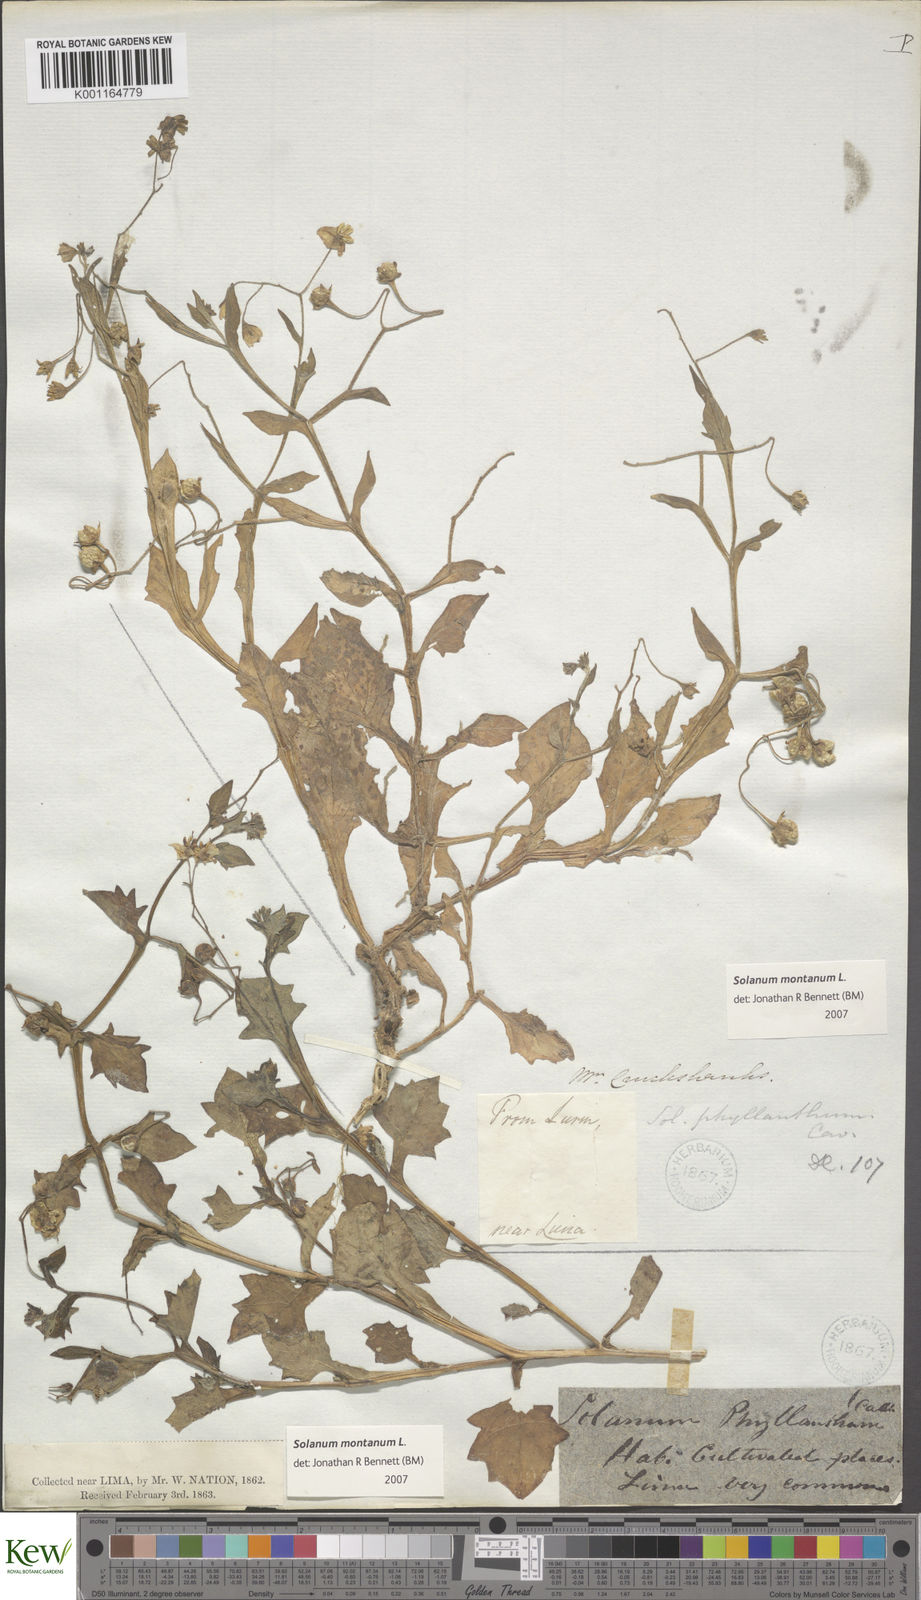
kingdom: Plantae
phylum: Tracheophyta
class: Magnoliopsida
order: Solanales
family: Solanaceae
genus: Solanum
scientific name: Solanum montanum
